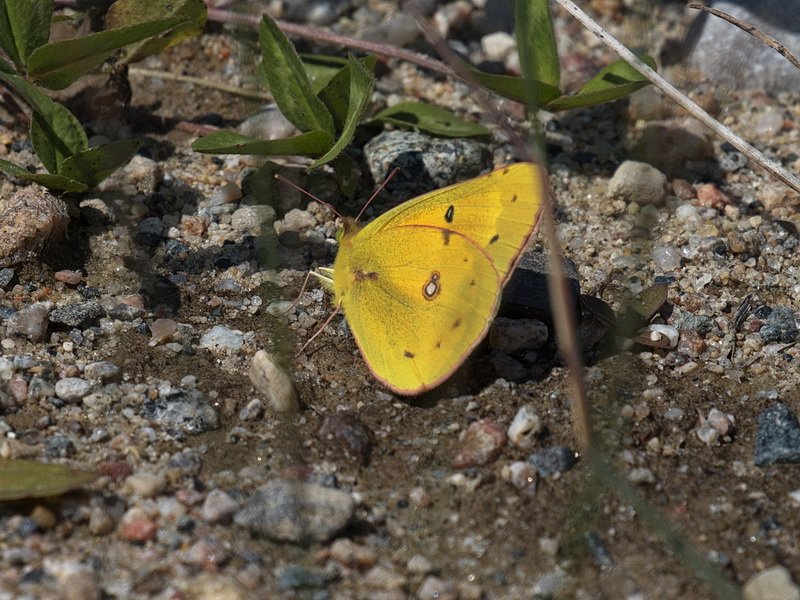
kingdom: Animalia
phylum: Arthropoda
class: Insecta
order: Lepidoptera
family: Pieridae
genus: Colias
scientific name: Colias eurytheme
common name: Orange Sulphur
